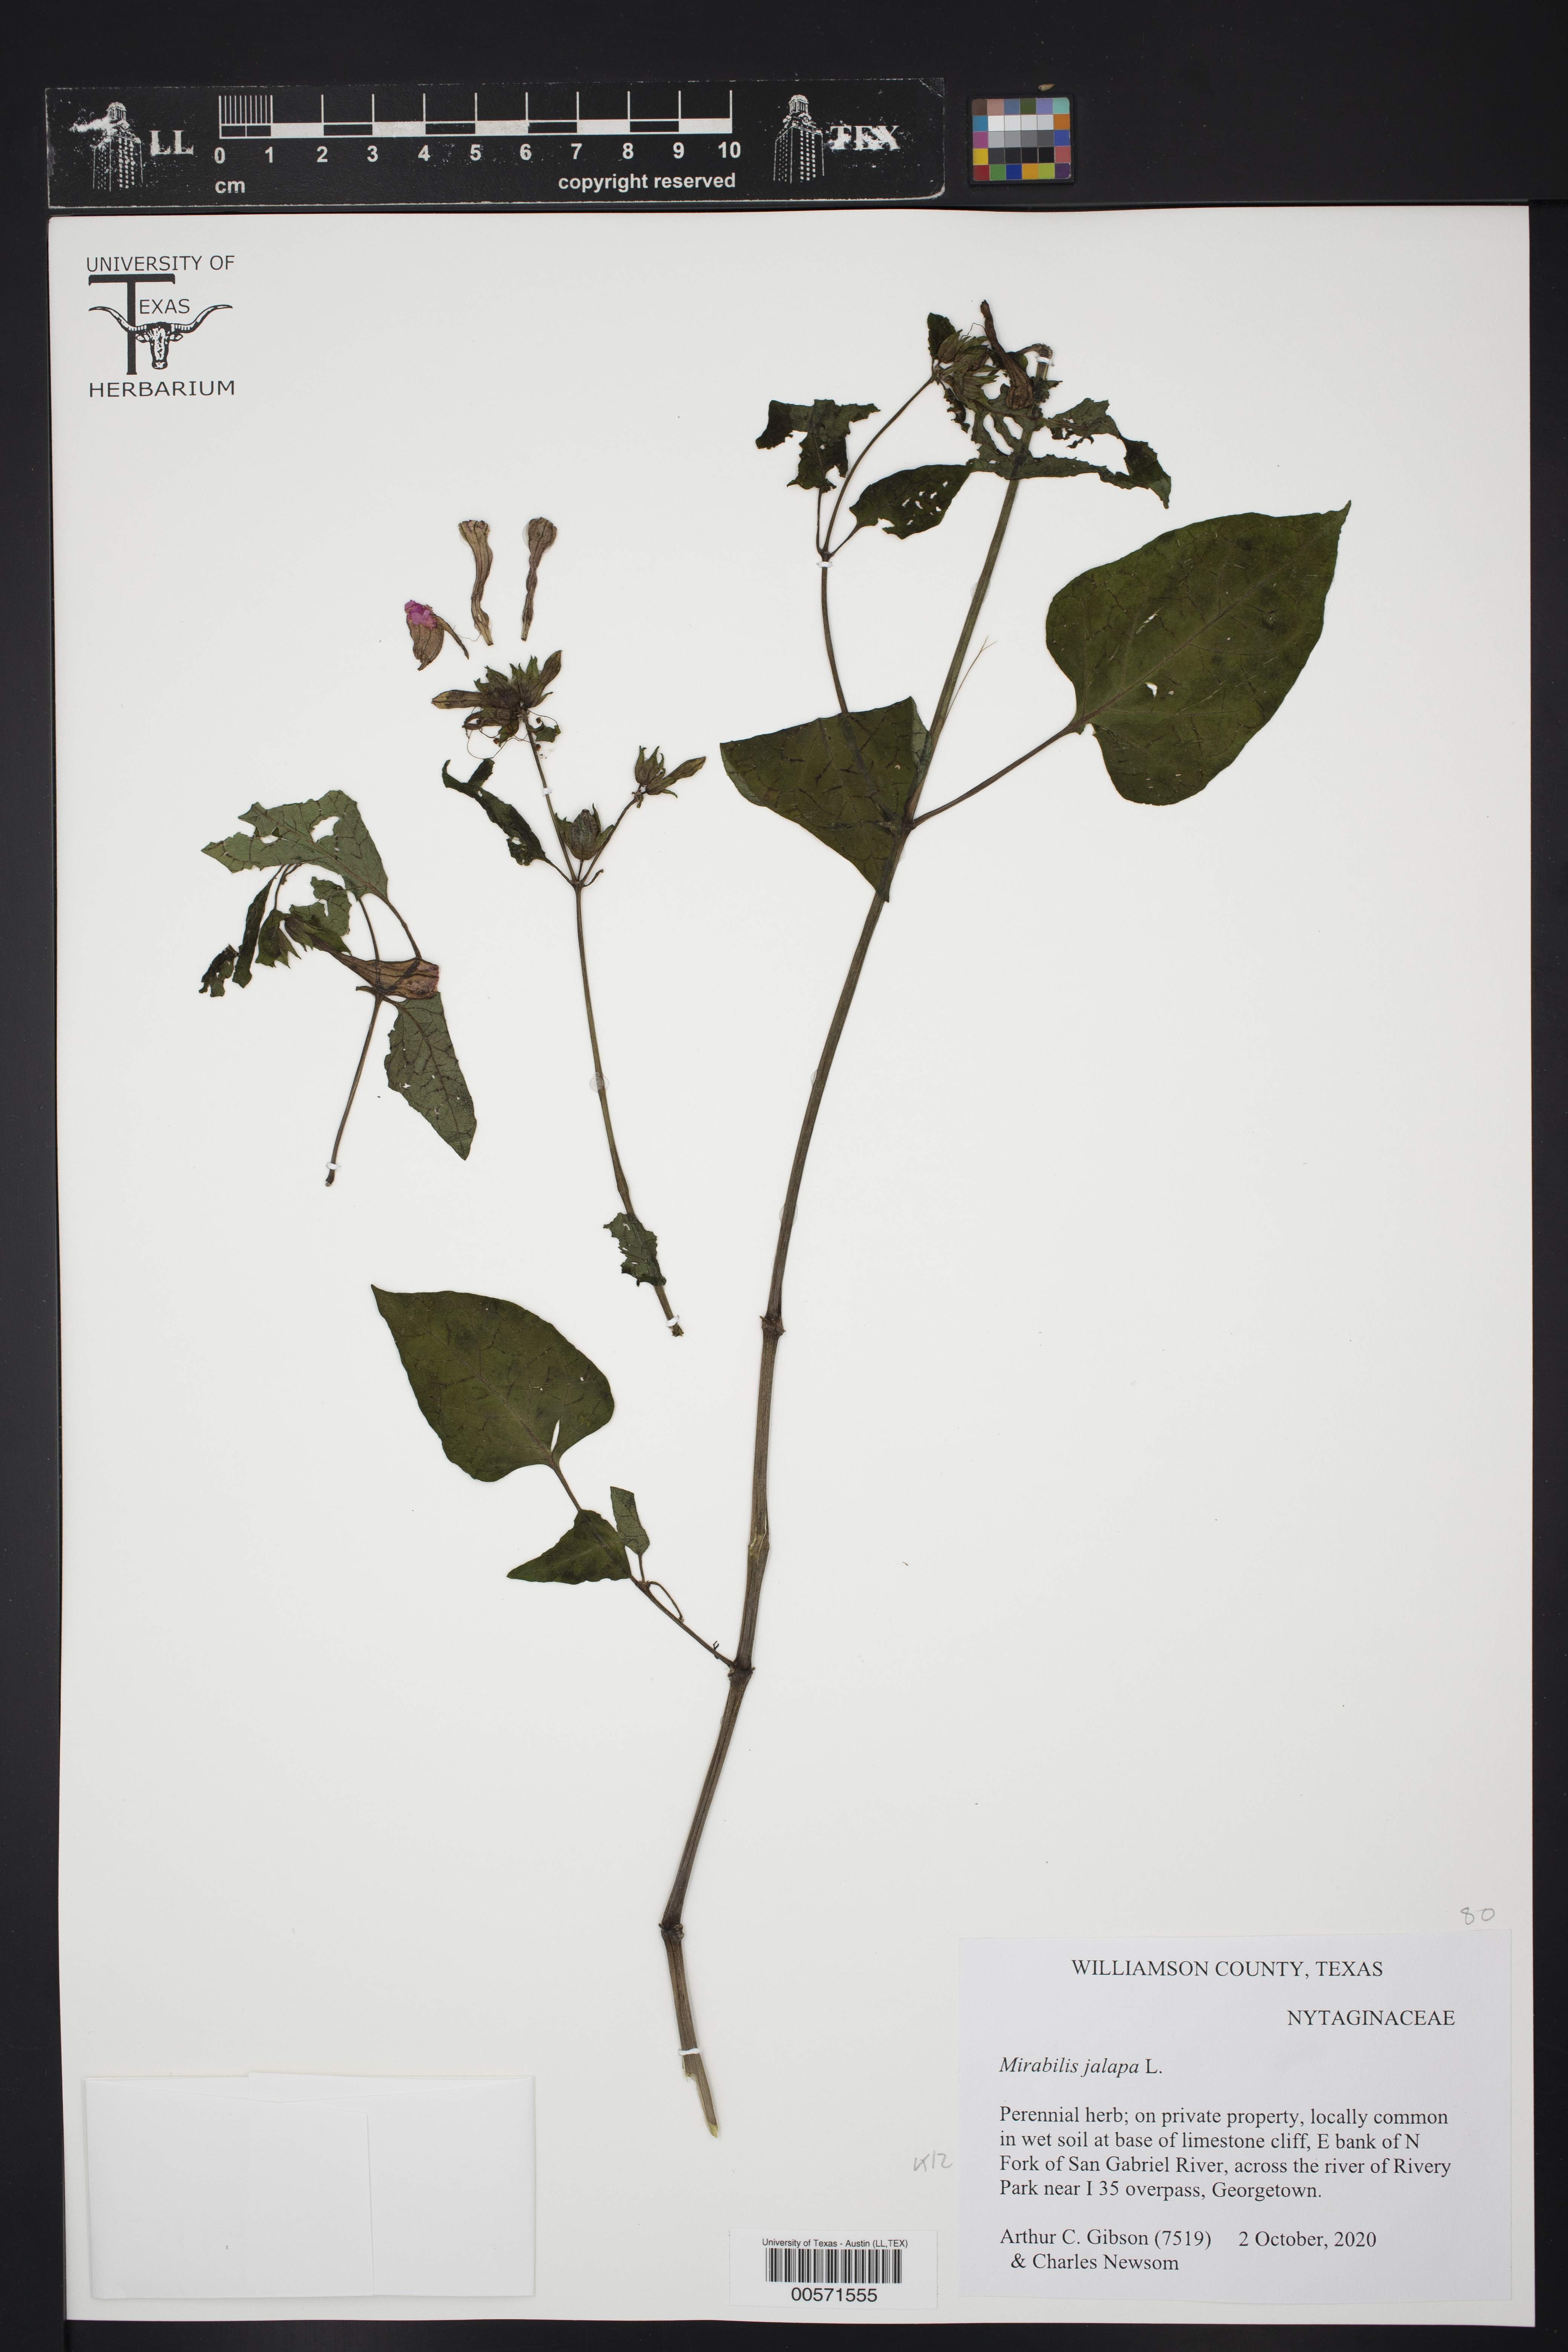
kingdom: Plantae
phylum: Tracheophyta
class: Magnoliopsida
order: Caryophyllales
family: Nyctaginaceae
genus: Mirabilis
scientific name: Mirabilis jalapa
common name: Marvel-of-peru
